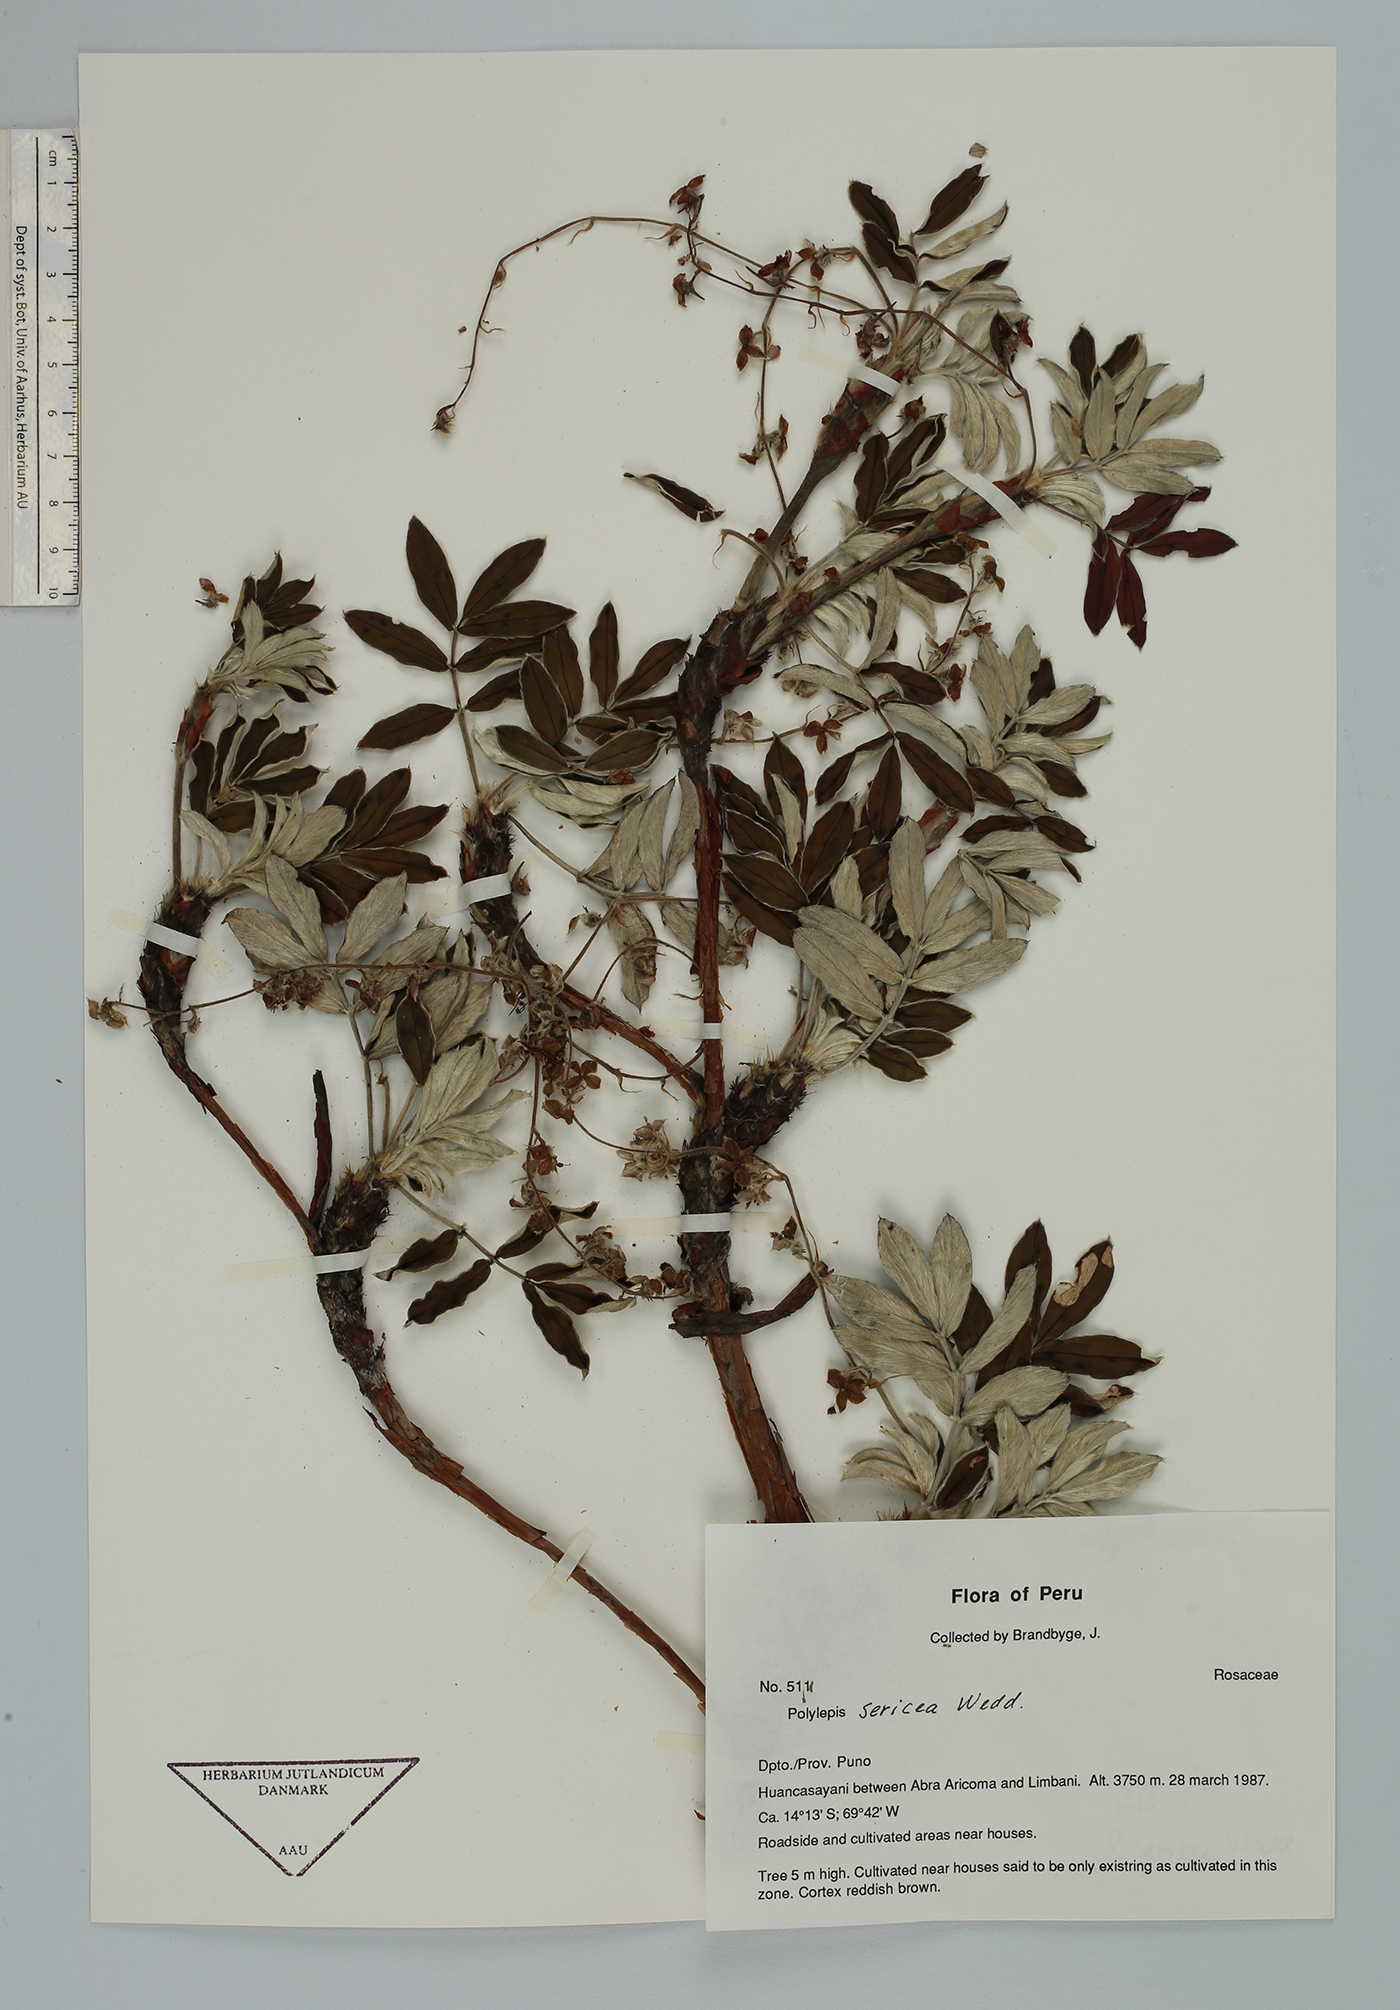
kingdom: Plantae
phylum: Tracheophyta
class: Magnoliopsida
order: Rosales
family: Rosaceae
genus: Polylepis
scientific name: Polylepis sericea
